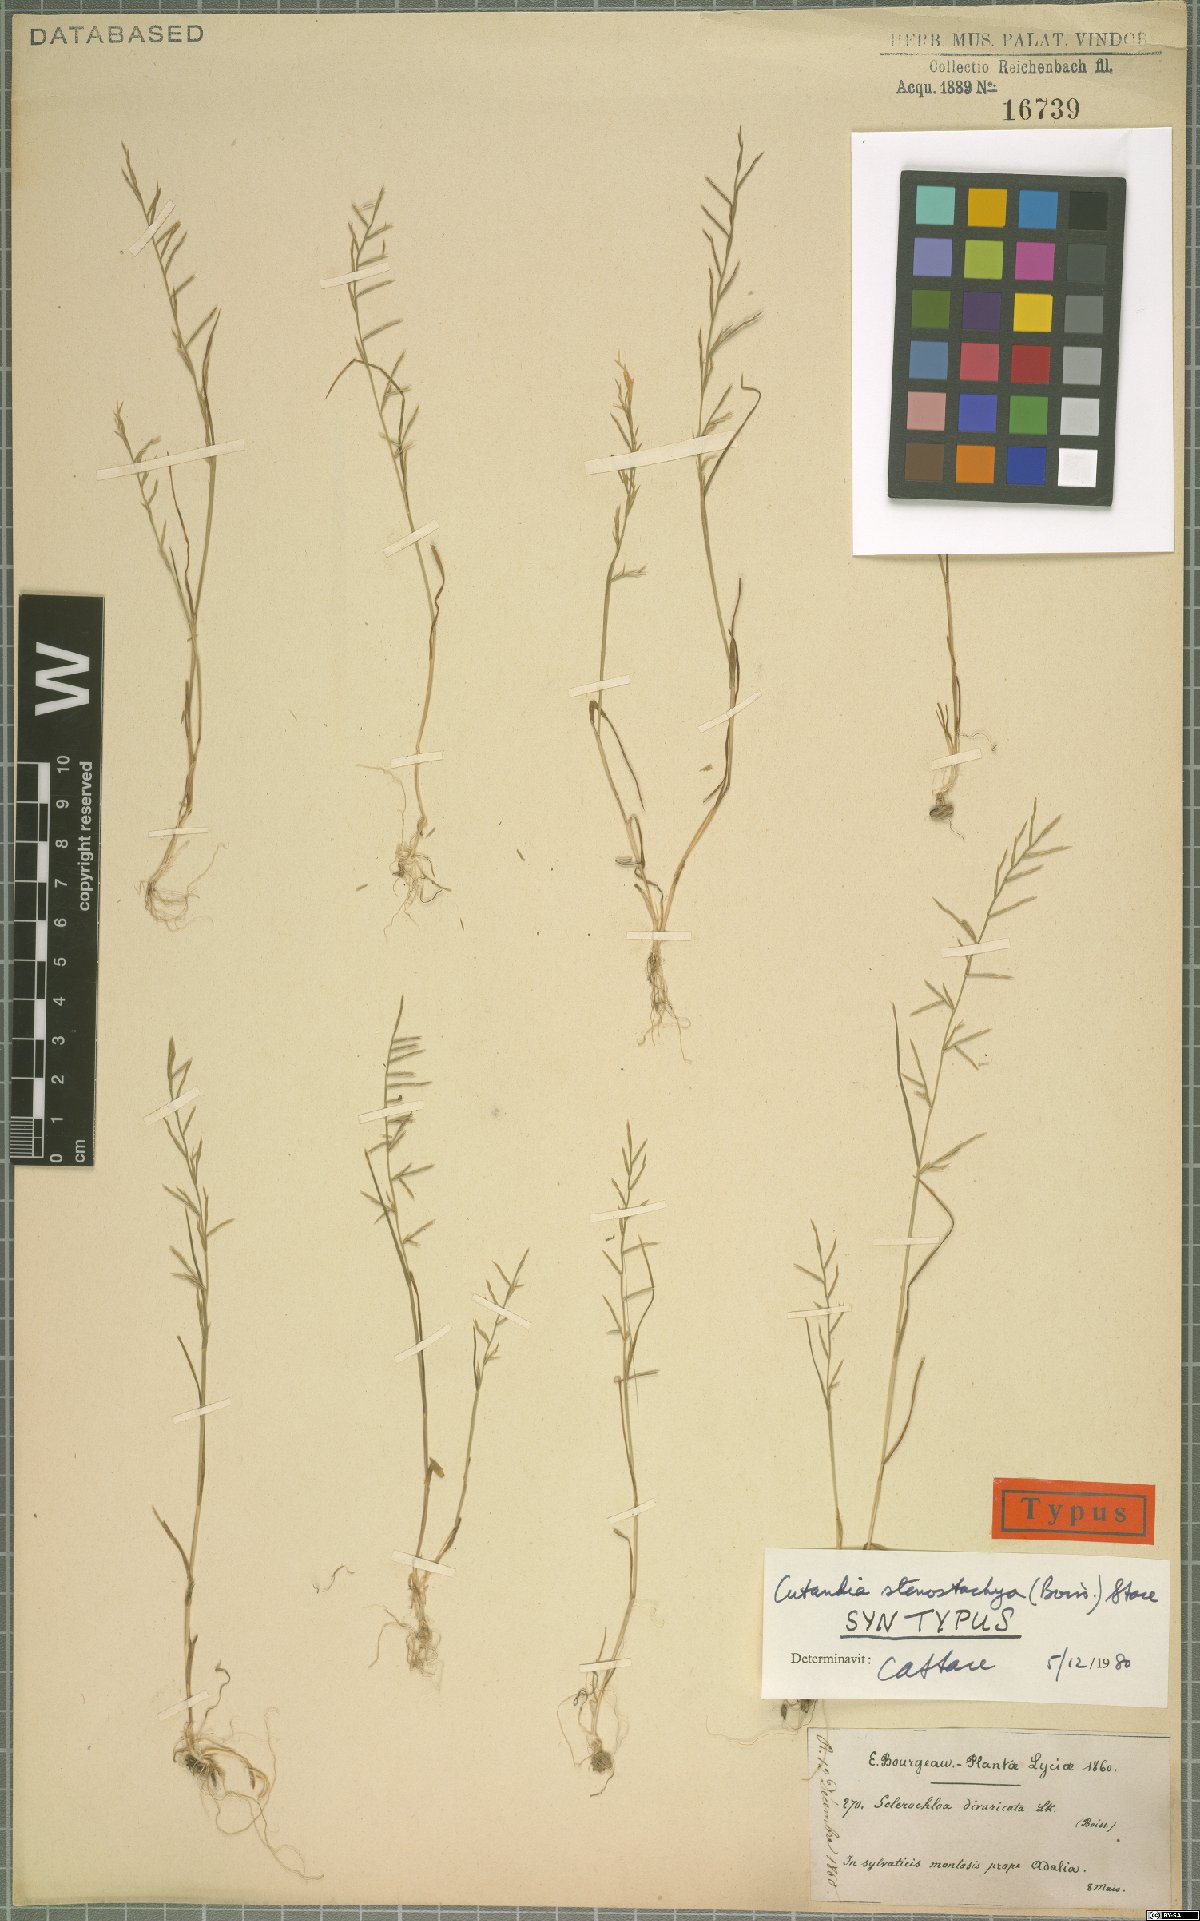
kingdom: Plantae
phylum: Tracheophyta
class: Liliopsida
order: Poales
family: Poaceae
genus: Cutandia
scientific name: Cutandia stenostachya
